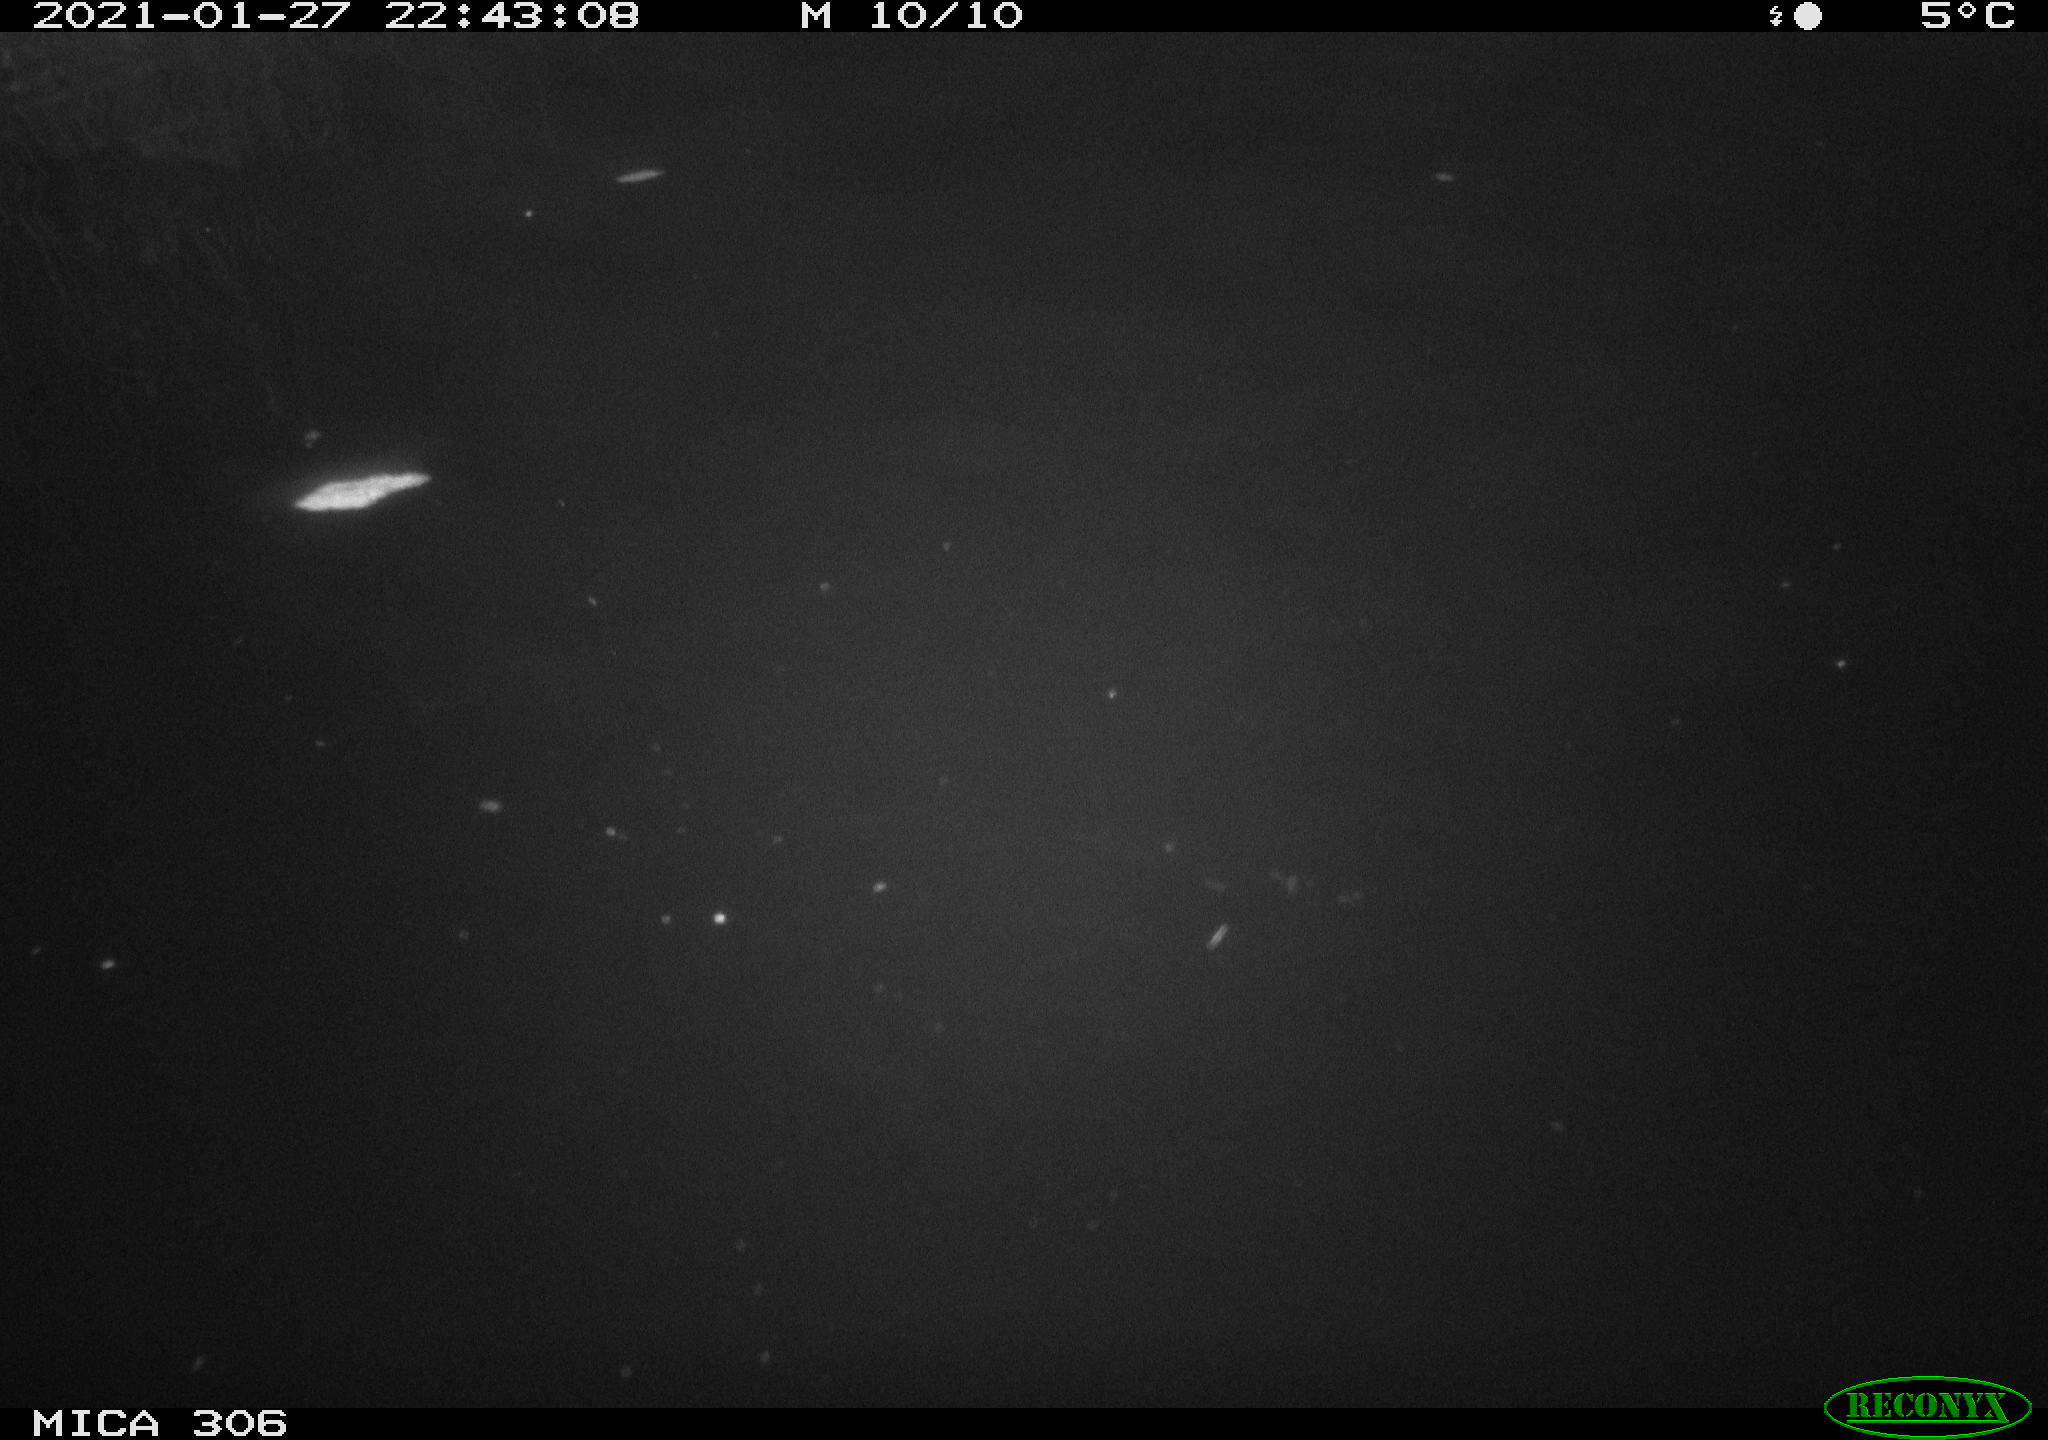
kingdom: Animalia
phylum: Chordata
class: Mammalia
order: Rodentia
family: Cricetidae
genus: Ondatra
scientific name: Ondatra zibethicus
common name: Muskrat
